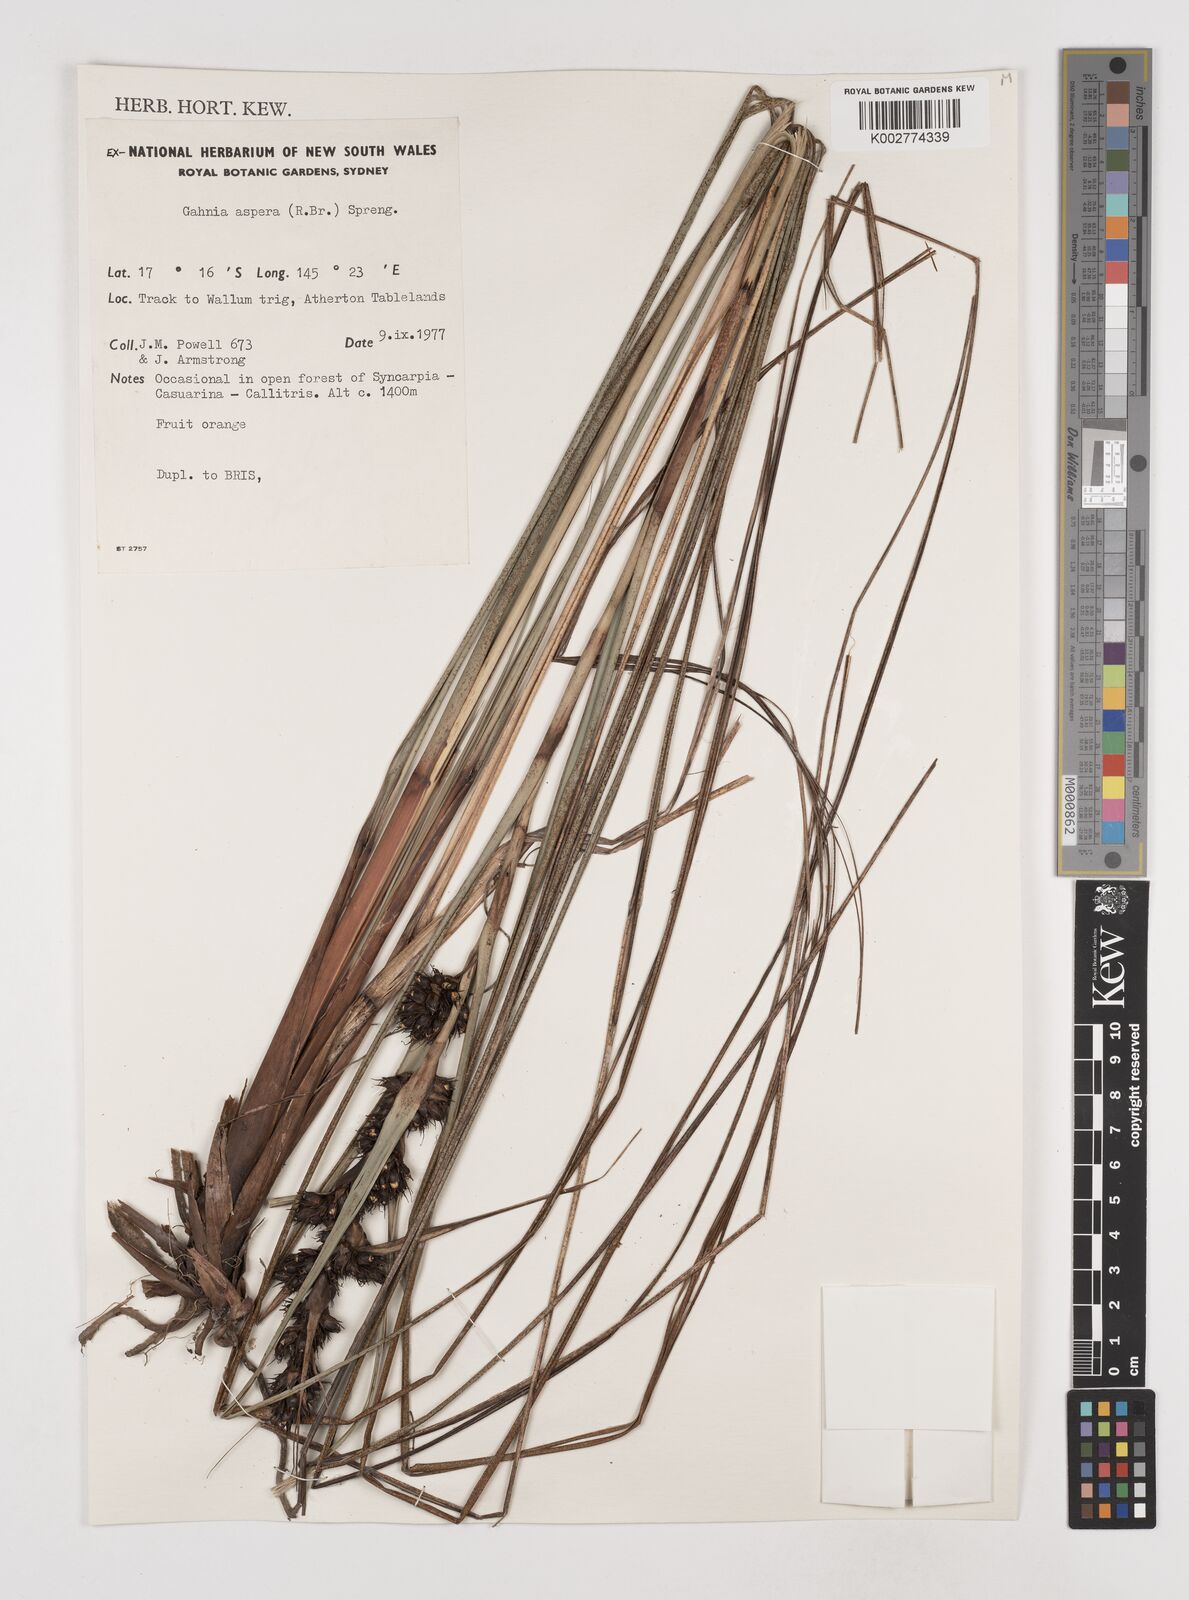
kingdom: Plantae
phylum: Tracheophyta
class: Liliopsida
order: Poales
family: Cyperaceae
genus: Gahnia
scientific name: Gahnia aspera
